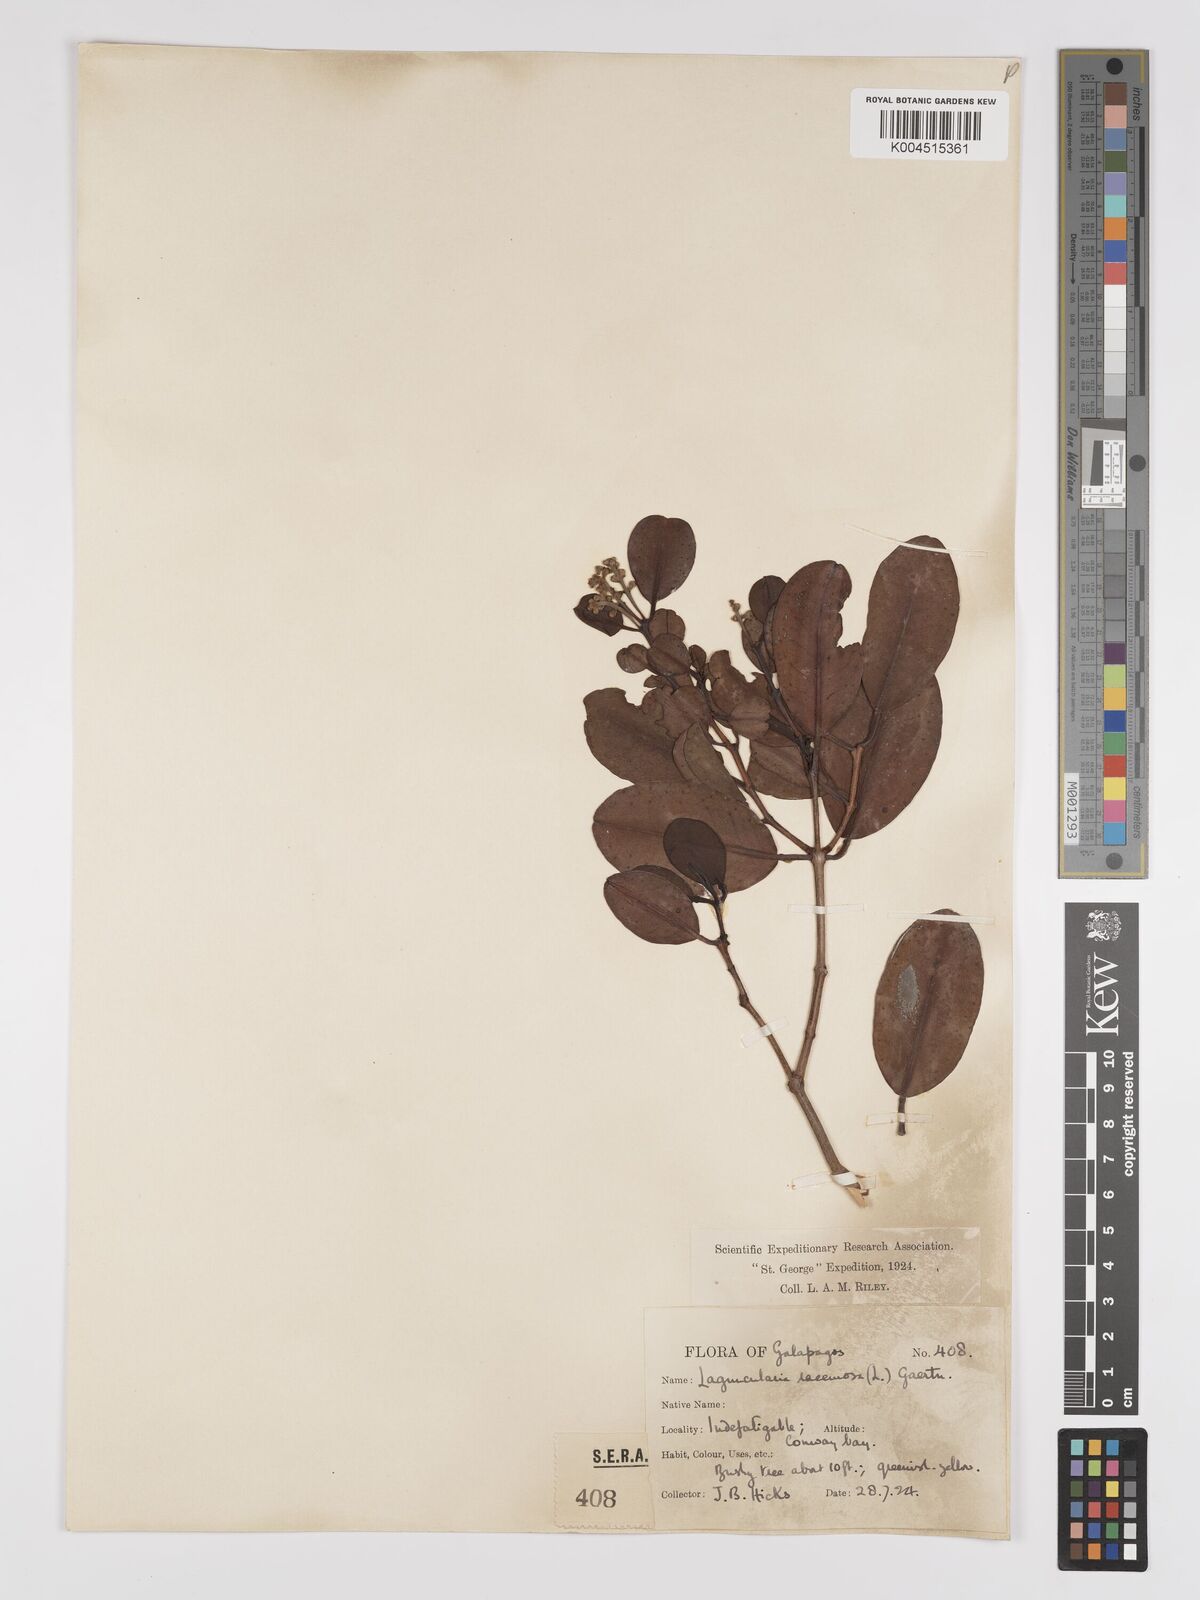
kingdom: Plantae
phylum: Tracheophyta
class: Magnoliopsida
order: Myrtales
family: Combretaceae
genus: Laguncularia
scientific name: Laguncularia racemosa
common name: White mangrove
